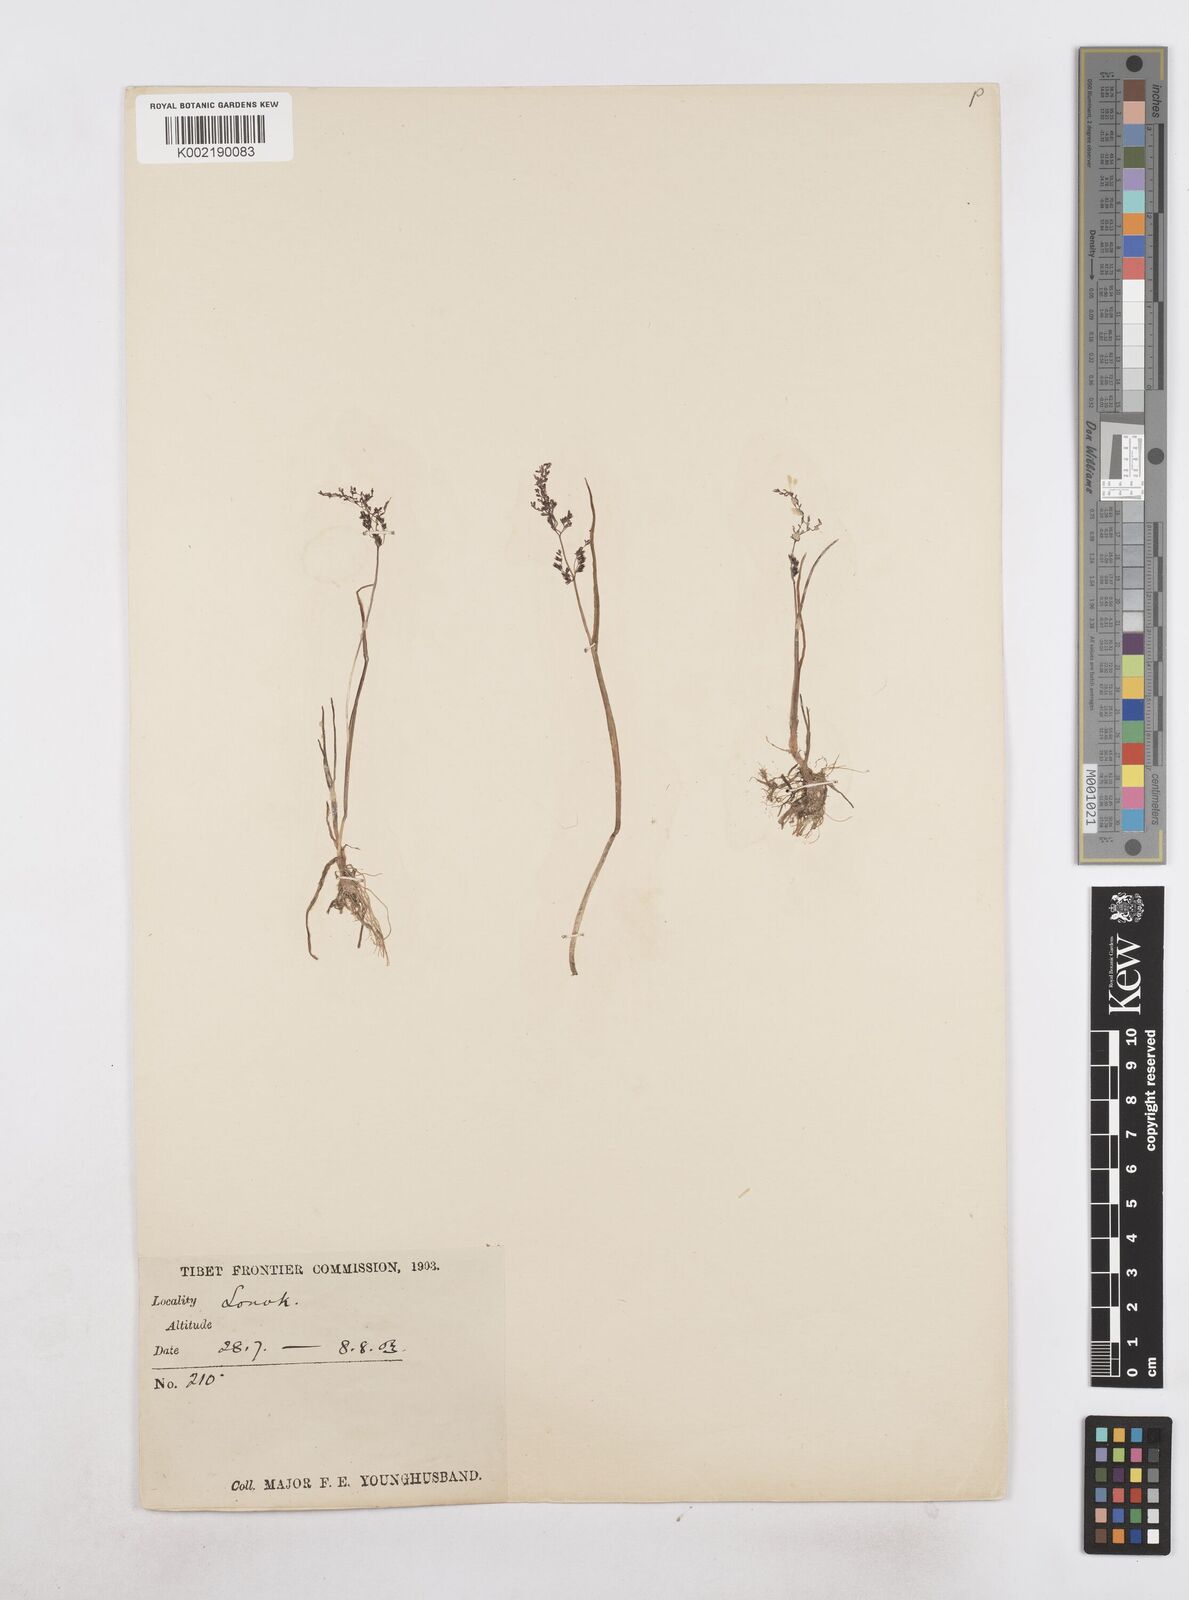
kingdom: Plantae
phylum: Tracheophyta
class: Liliopsida
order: Poales
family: Poaceae
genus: Catabrosa
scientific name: Catabrosa aquatica
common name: Whorl-grass
